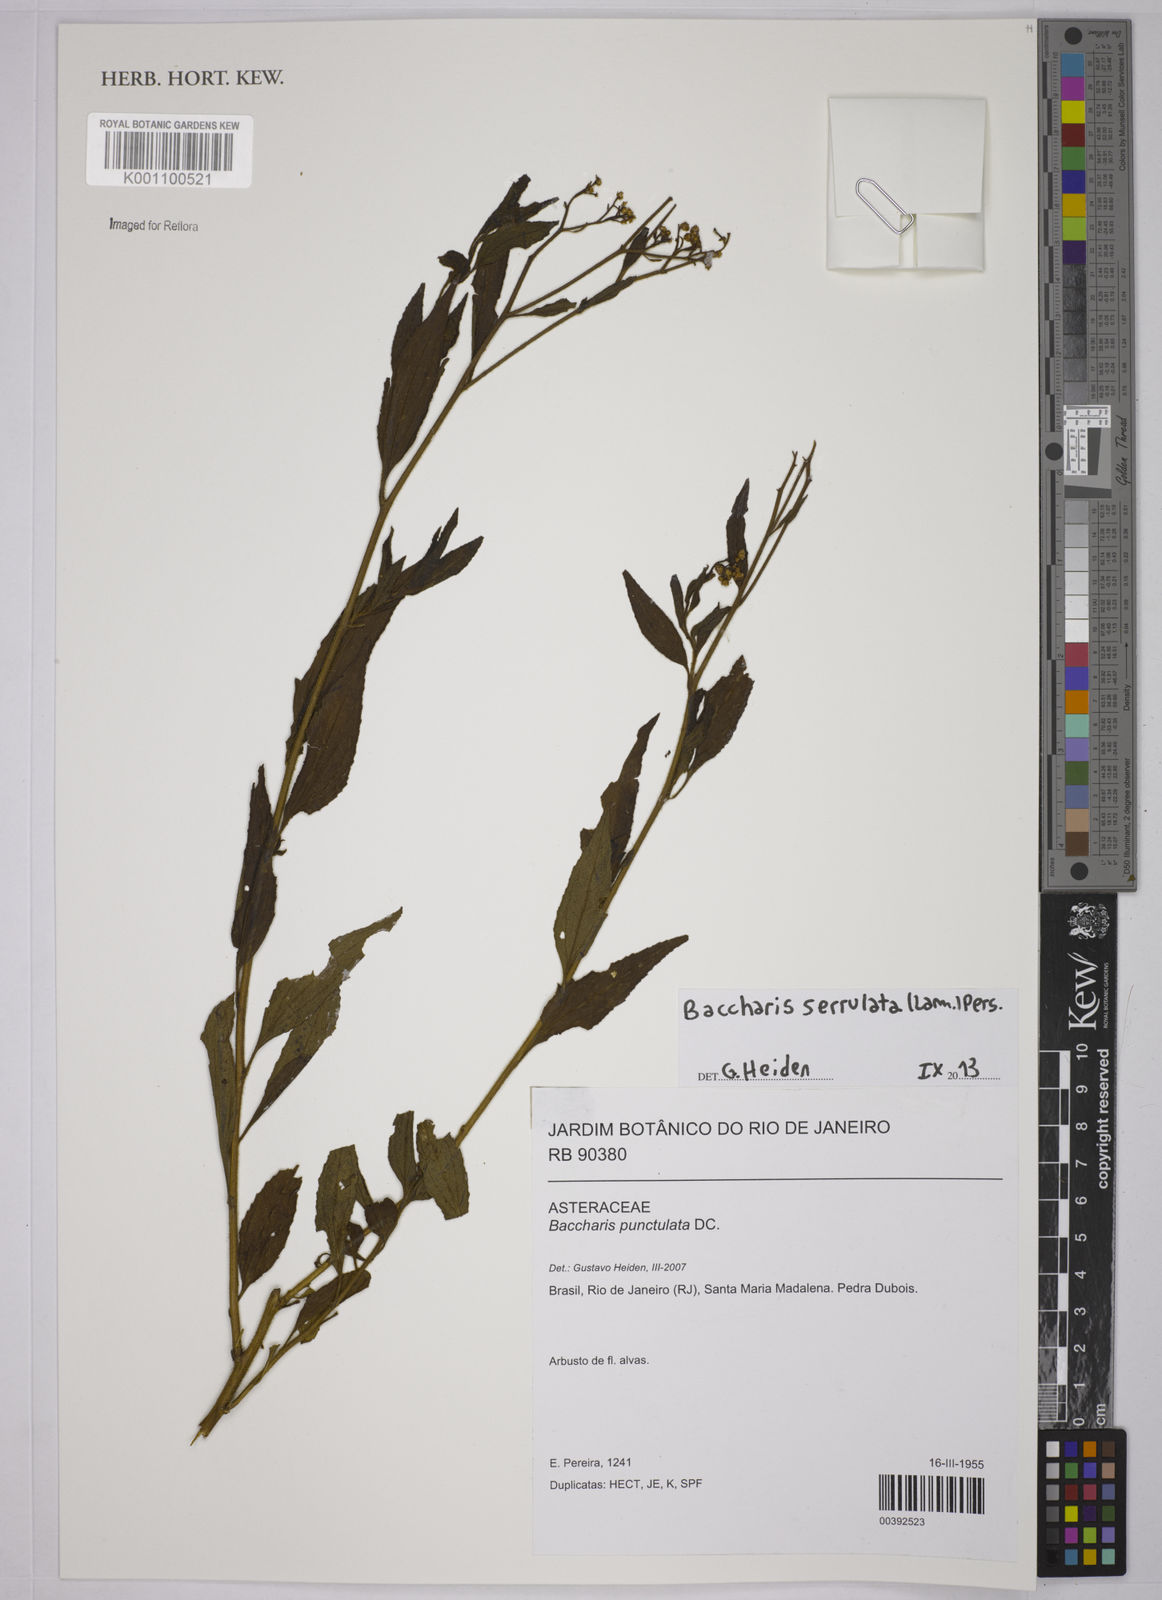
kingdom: Plantae
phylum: Tracheophyta
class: Magnoliopsida
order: Asterales
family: Asteraceae
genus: Baccharis
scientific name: Baccharis serrulata
